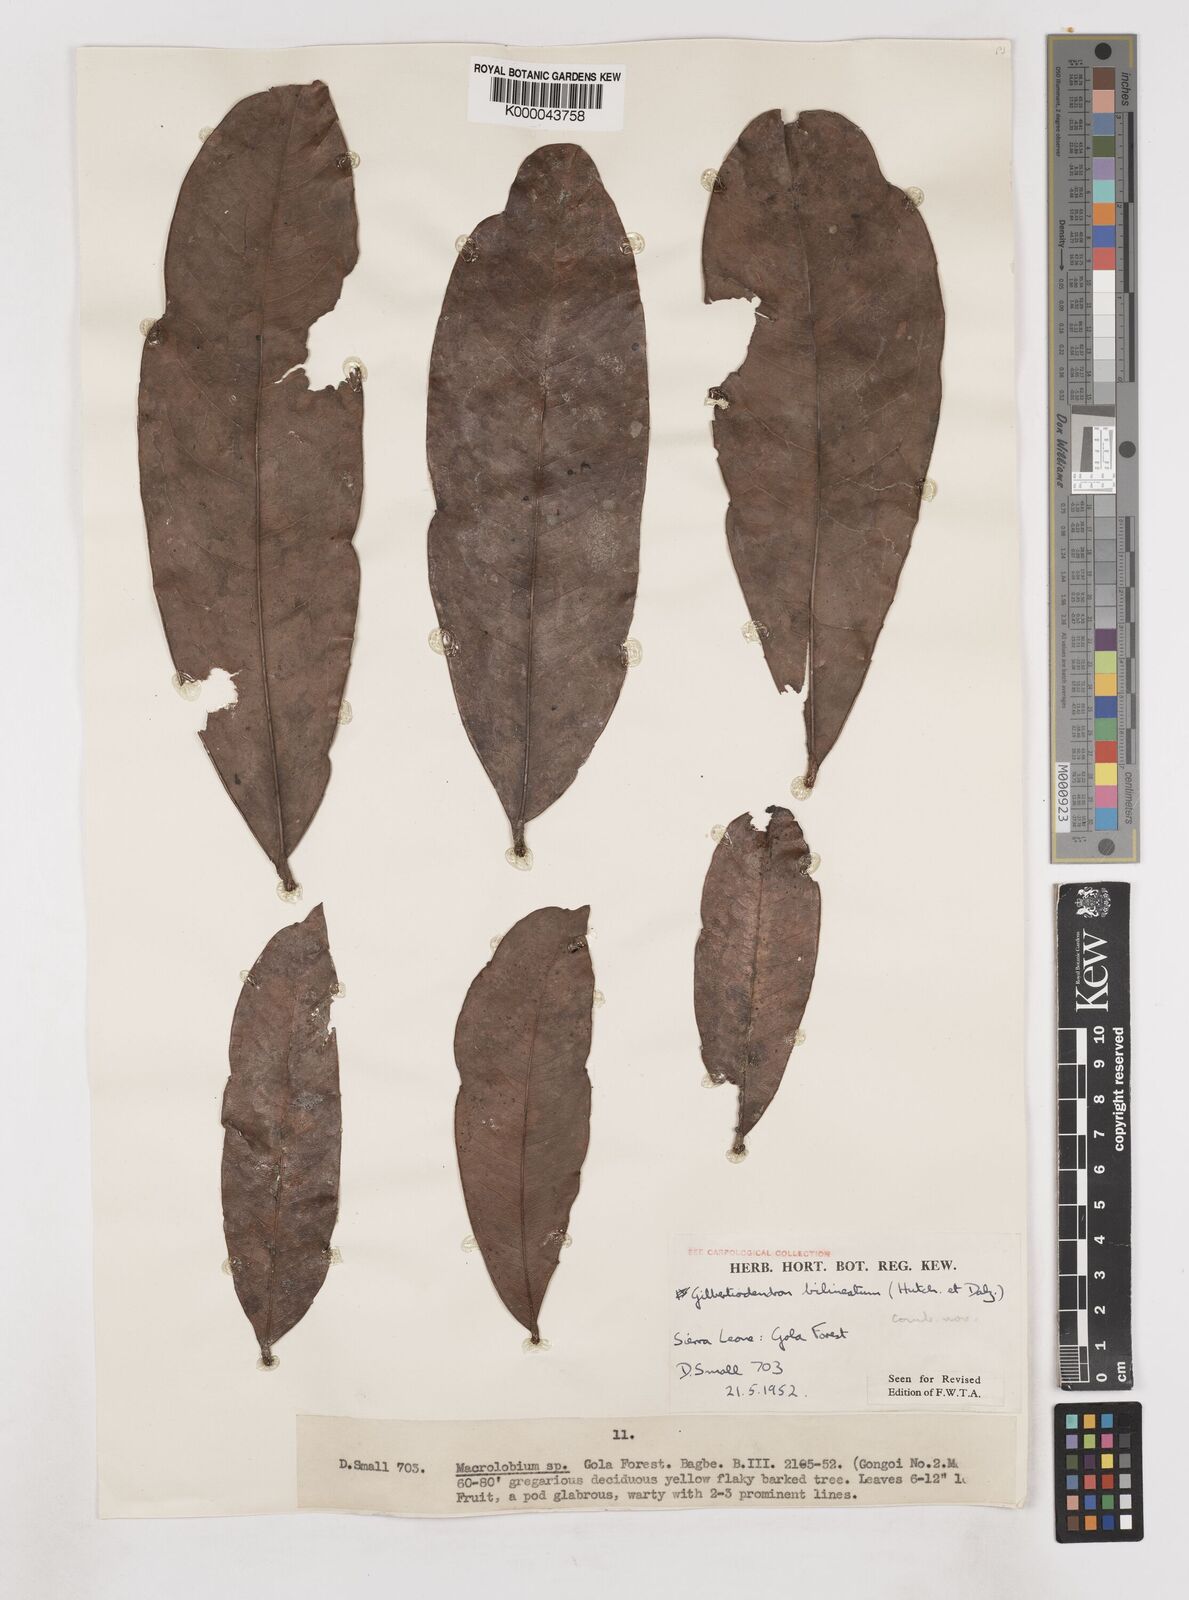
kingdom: Plantae
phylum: Tracheophyta
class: Magnoliopsida
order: Fabales
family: Fabaceae
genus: Gilbertiodendron
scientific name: Gilbertiodendron
